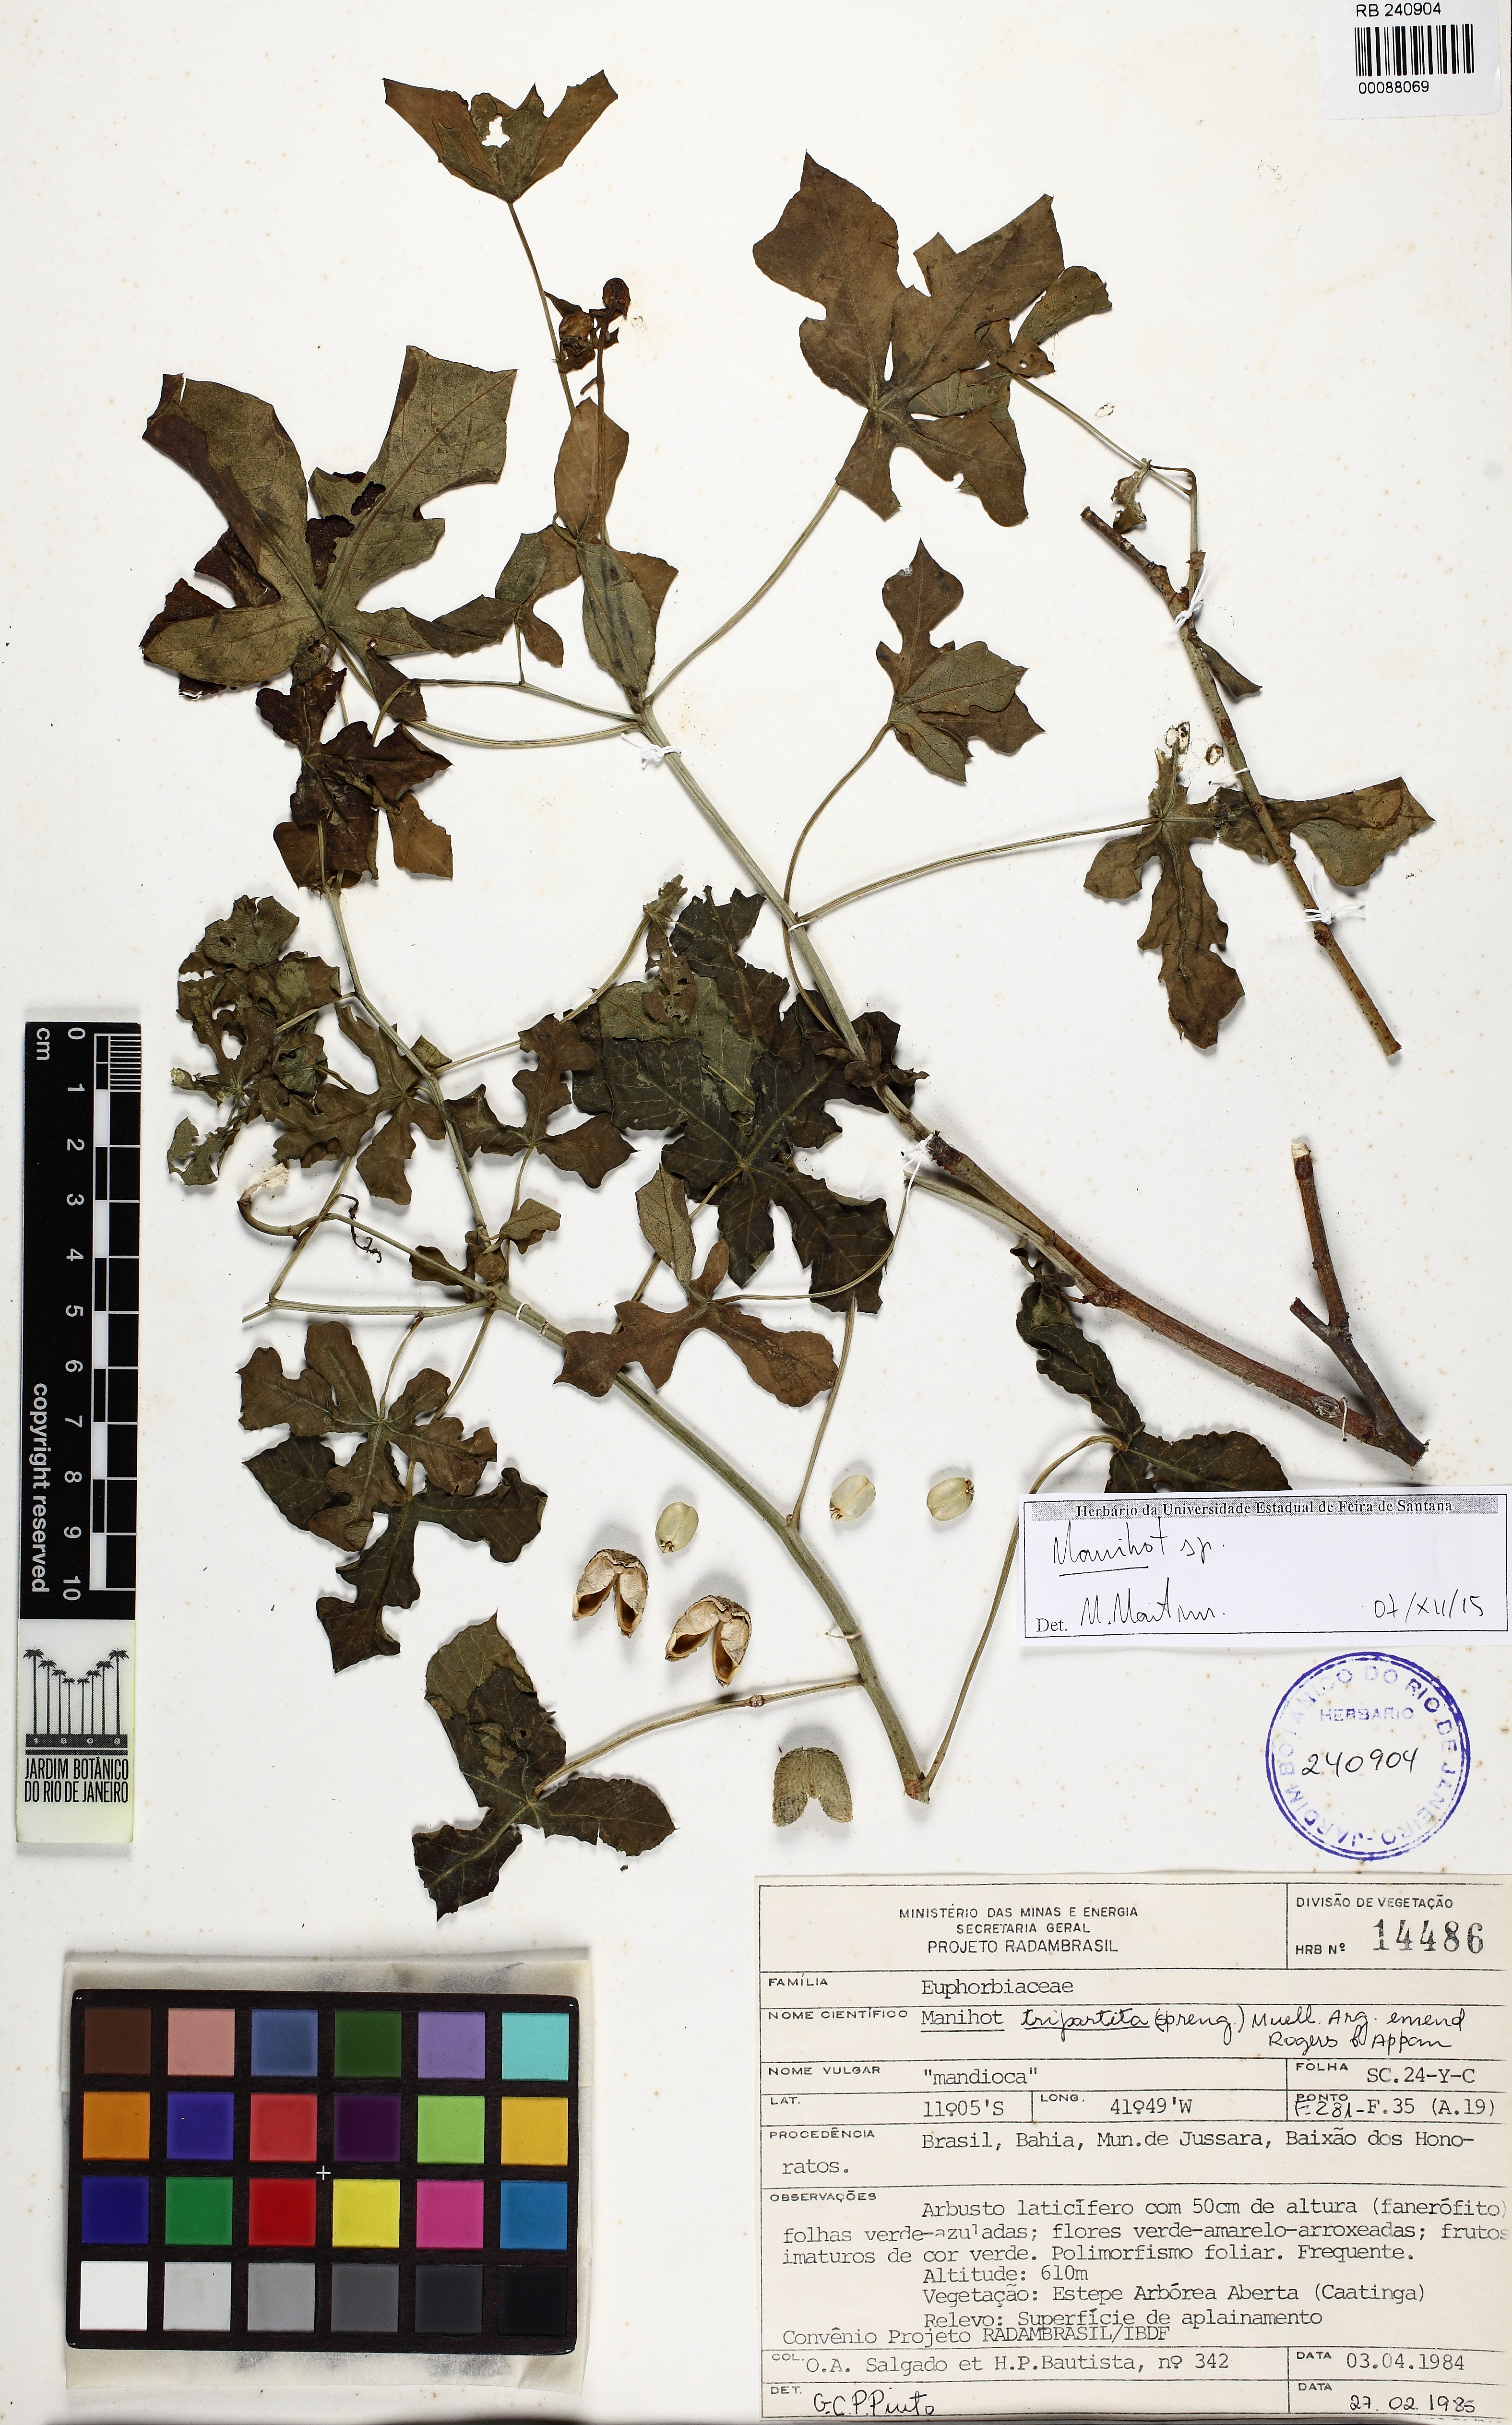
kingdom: Plantae
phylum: Tracheophyta
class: Magnoliopsida
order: Malpighiales
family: Euphorbiaceae
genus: Manihot
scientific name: Manihot
